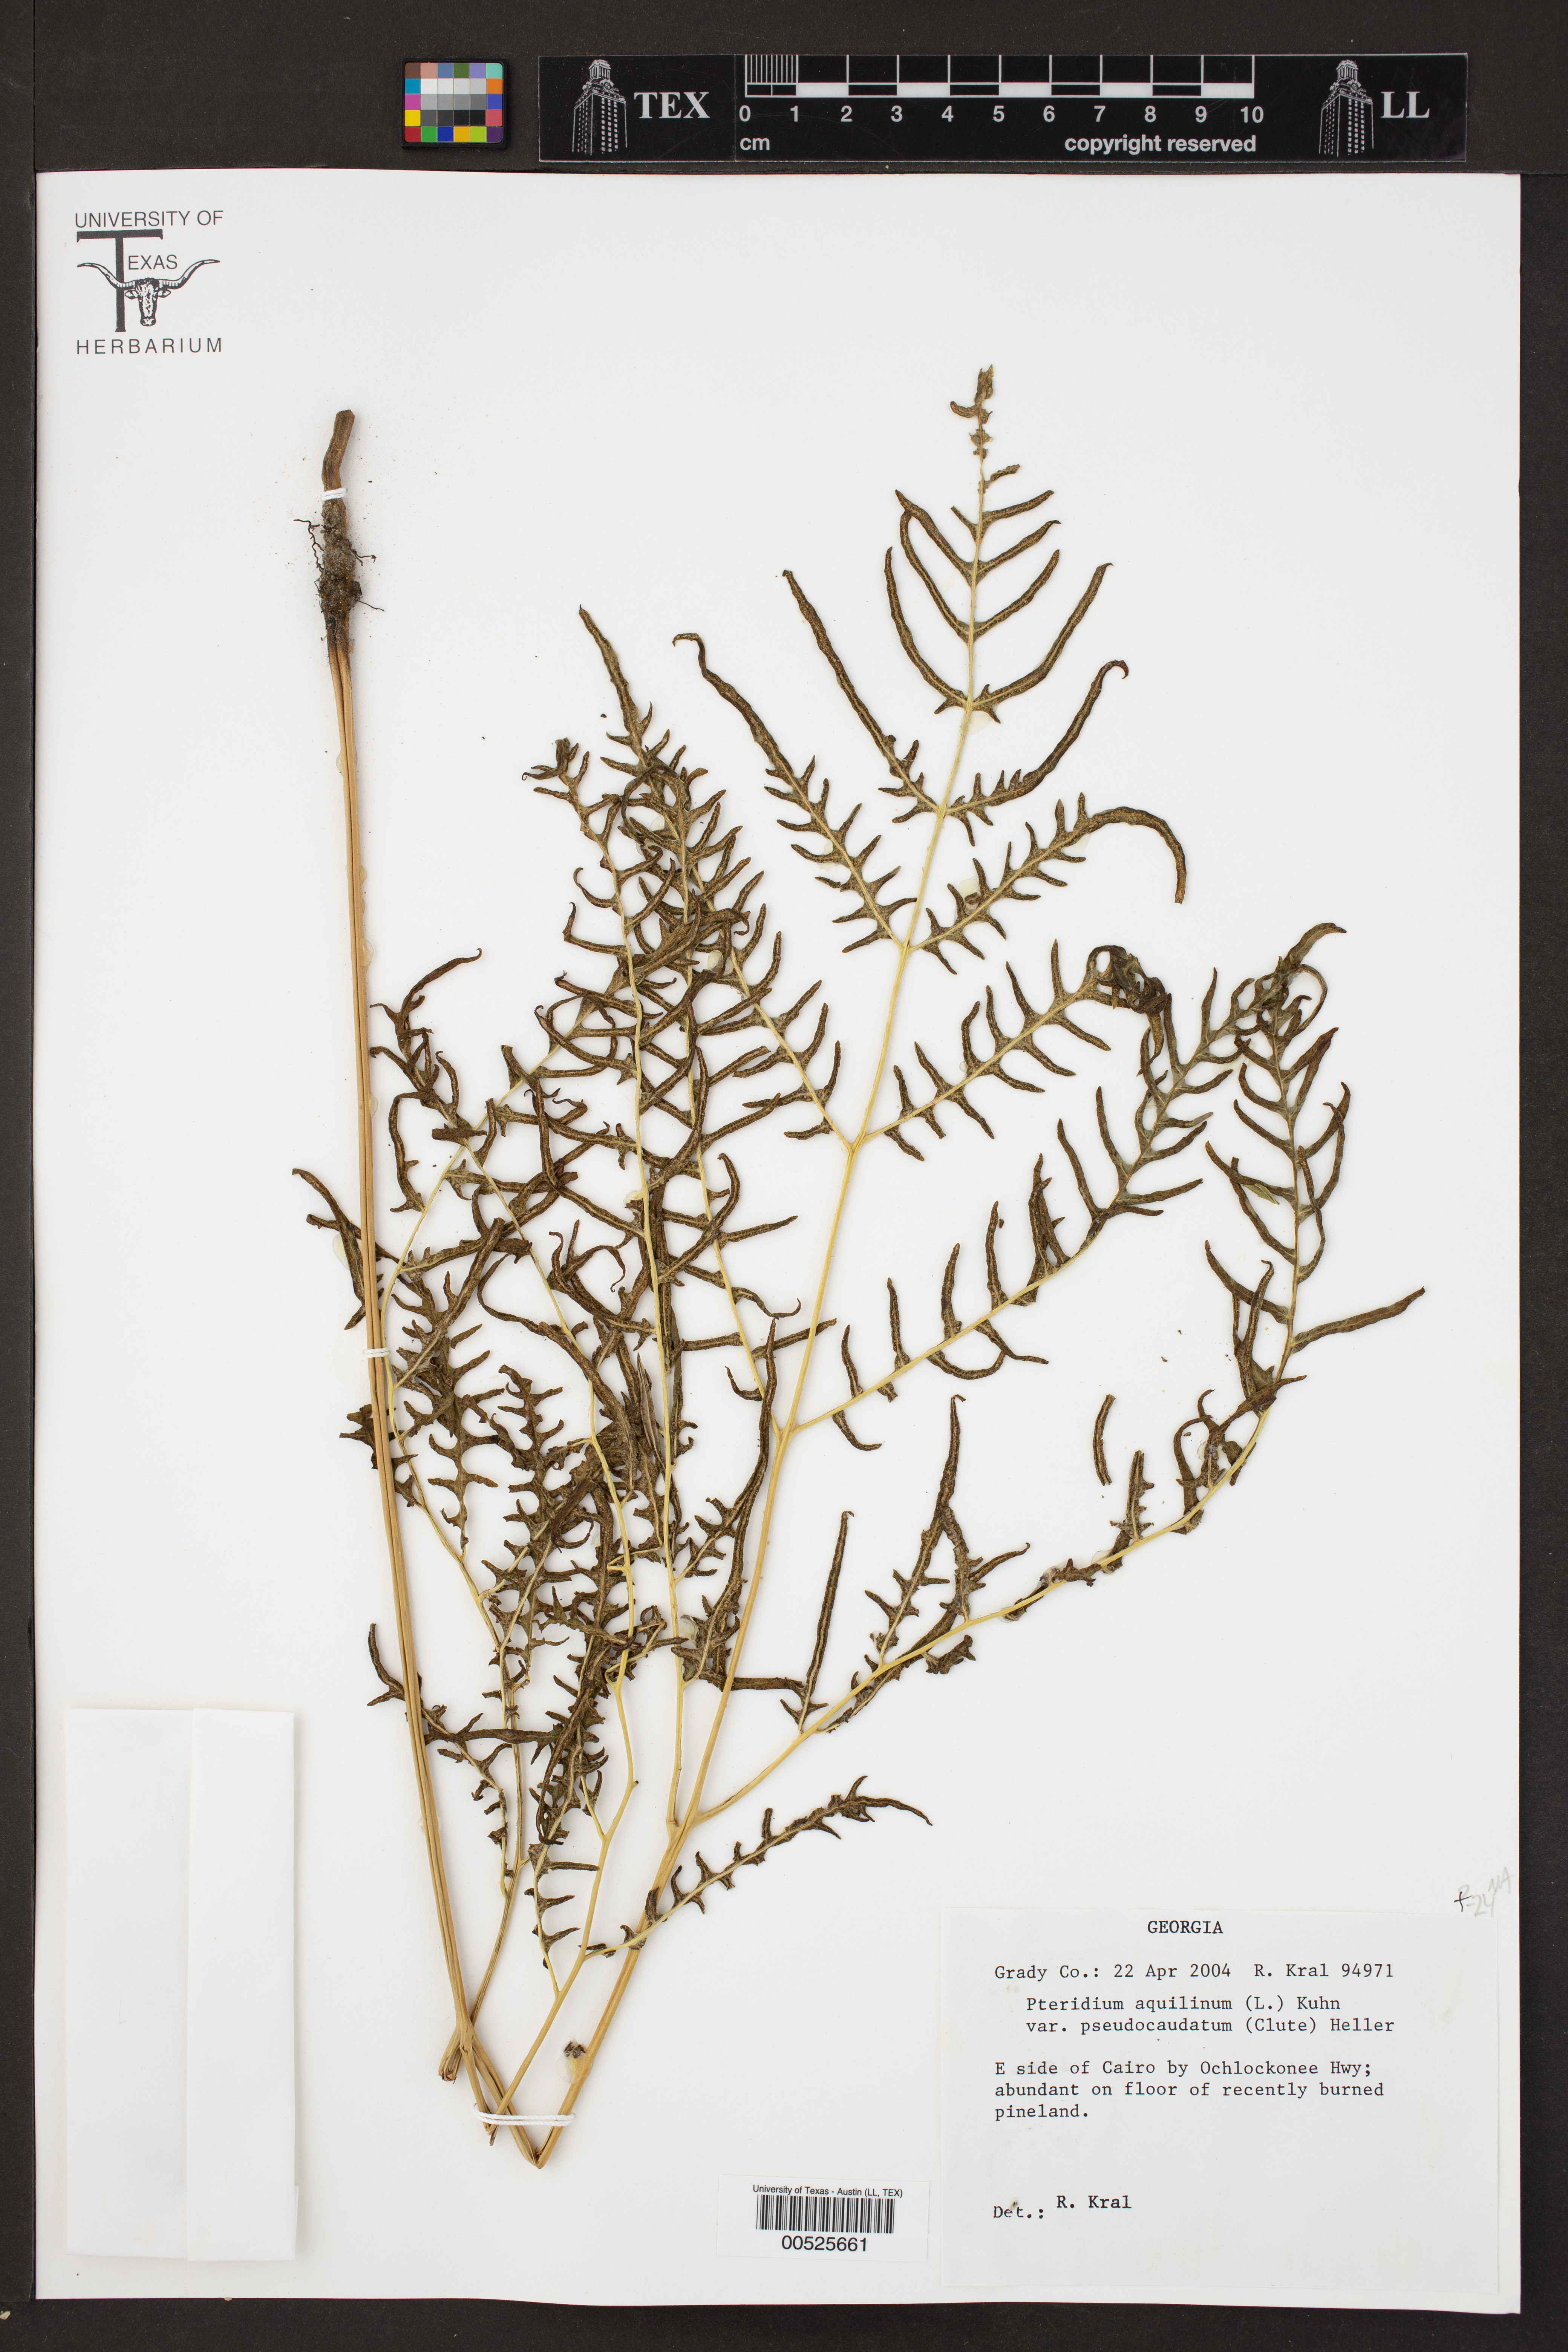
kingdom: Plantae
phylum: Tracheophyta
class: Polypodiopsida
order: Polypodiales
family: Dennstaedtiaceae
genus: Pteridium
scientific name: Pteridium
